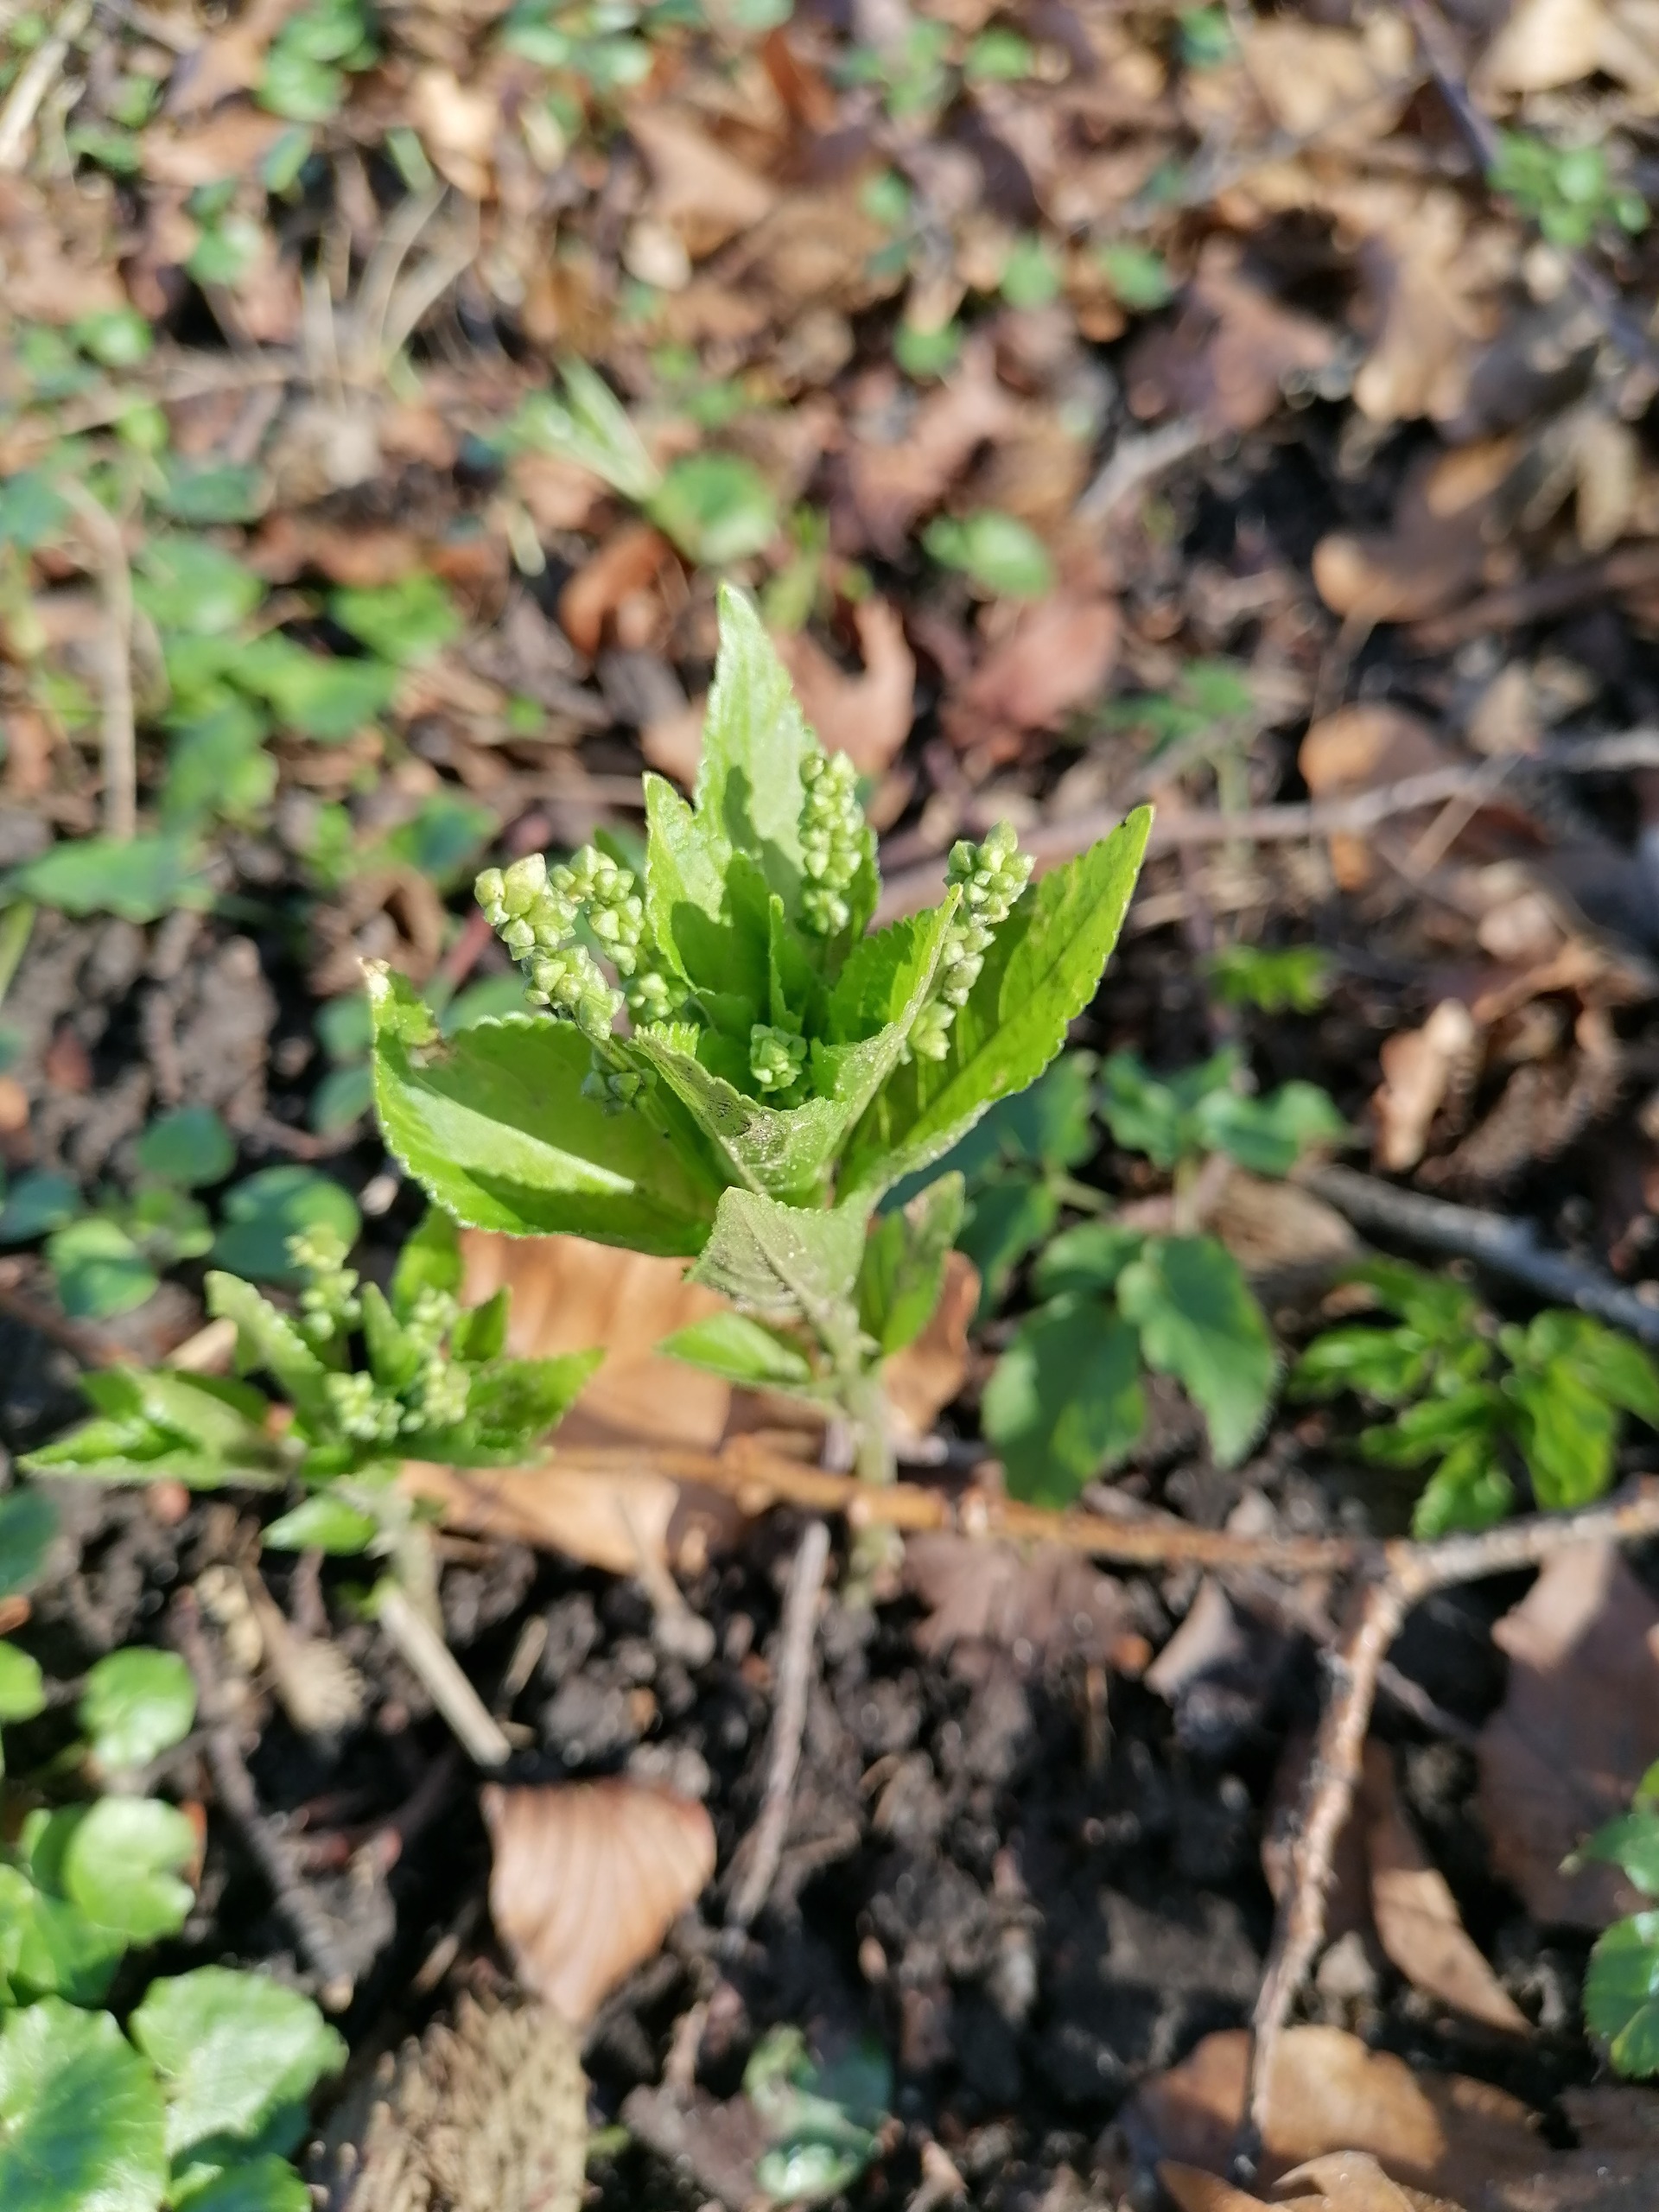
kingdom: Plantae
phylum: Tracheophyta
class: Magnoliopsida
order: Malpighiales
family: Euphorbiaceae
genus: Mercurialis
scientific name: Mercurialis perennis
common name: Almindelig bingelurt
